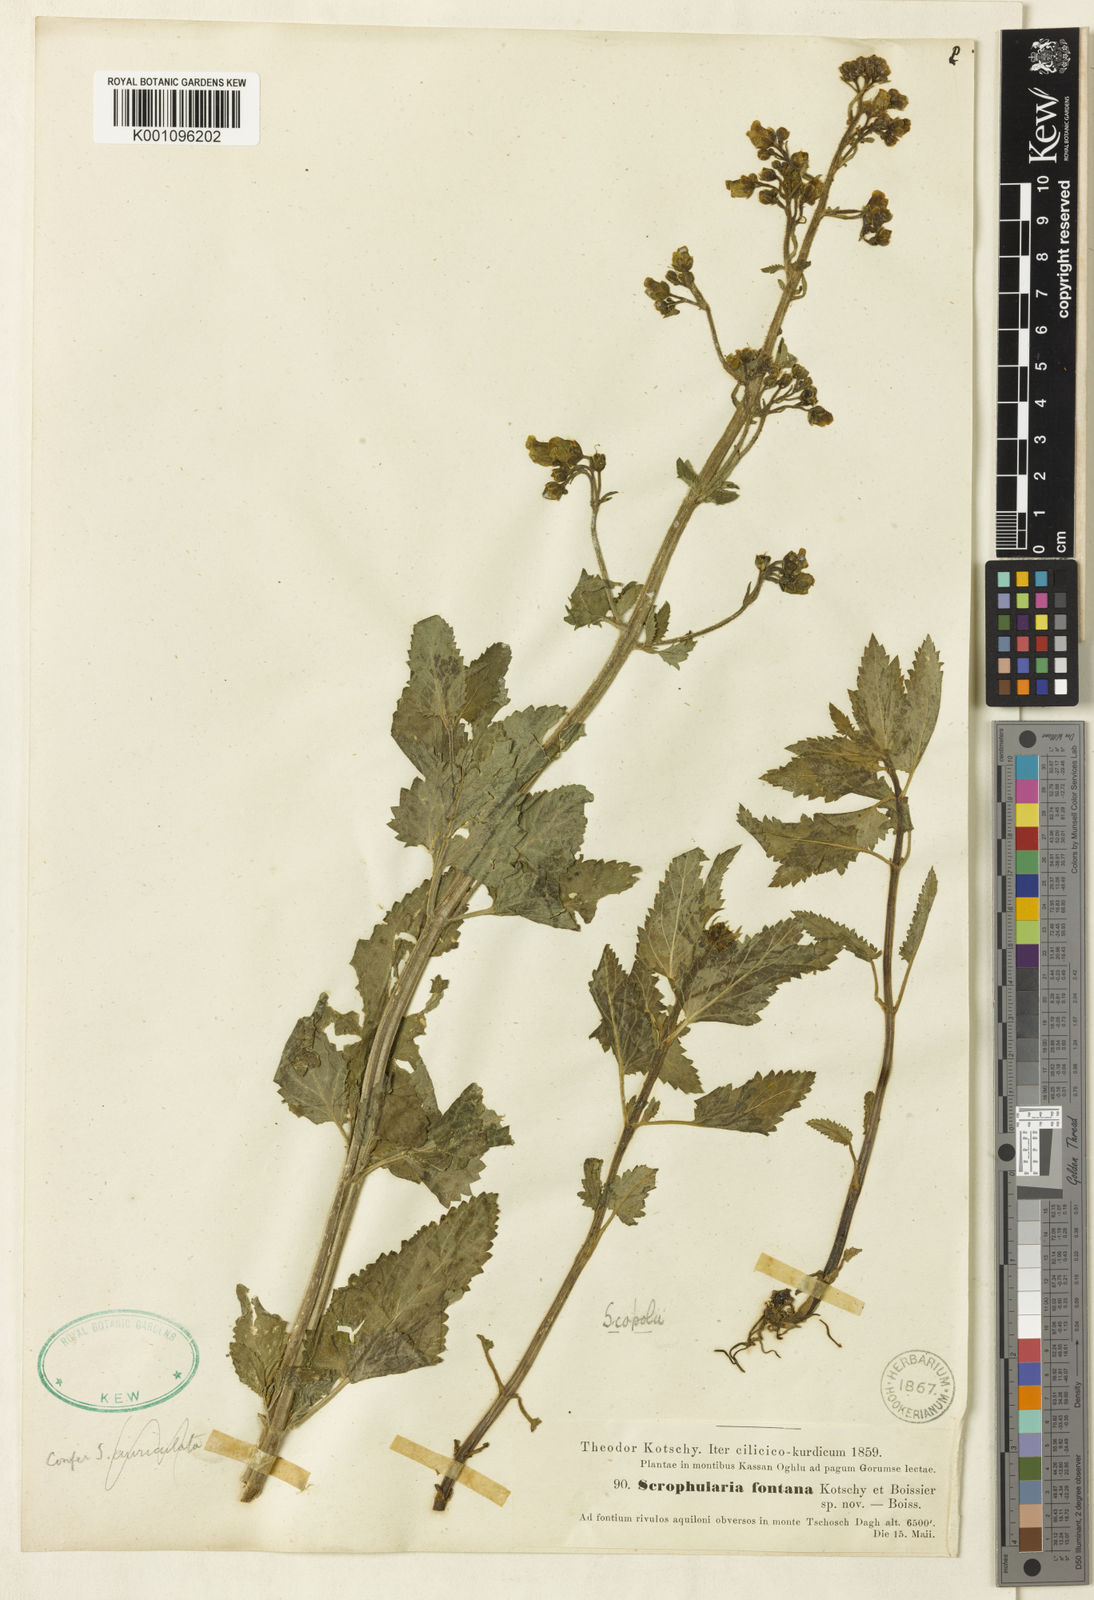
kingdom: Plantae
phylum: Tracheophyta
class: Magnoliopsida
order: Lamiales
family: Scrophulariaceae
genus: Scrophularia
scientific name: Scrophularia scopolii
